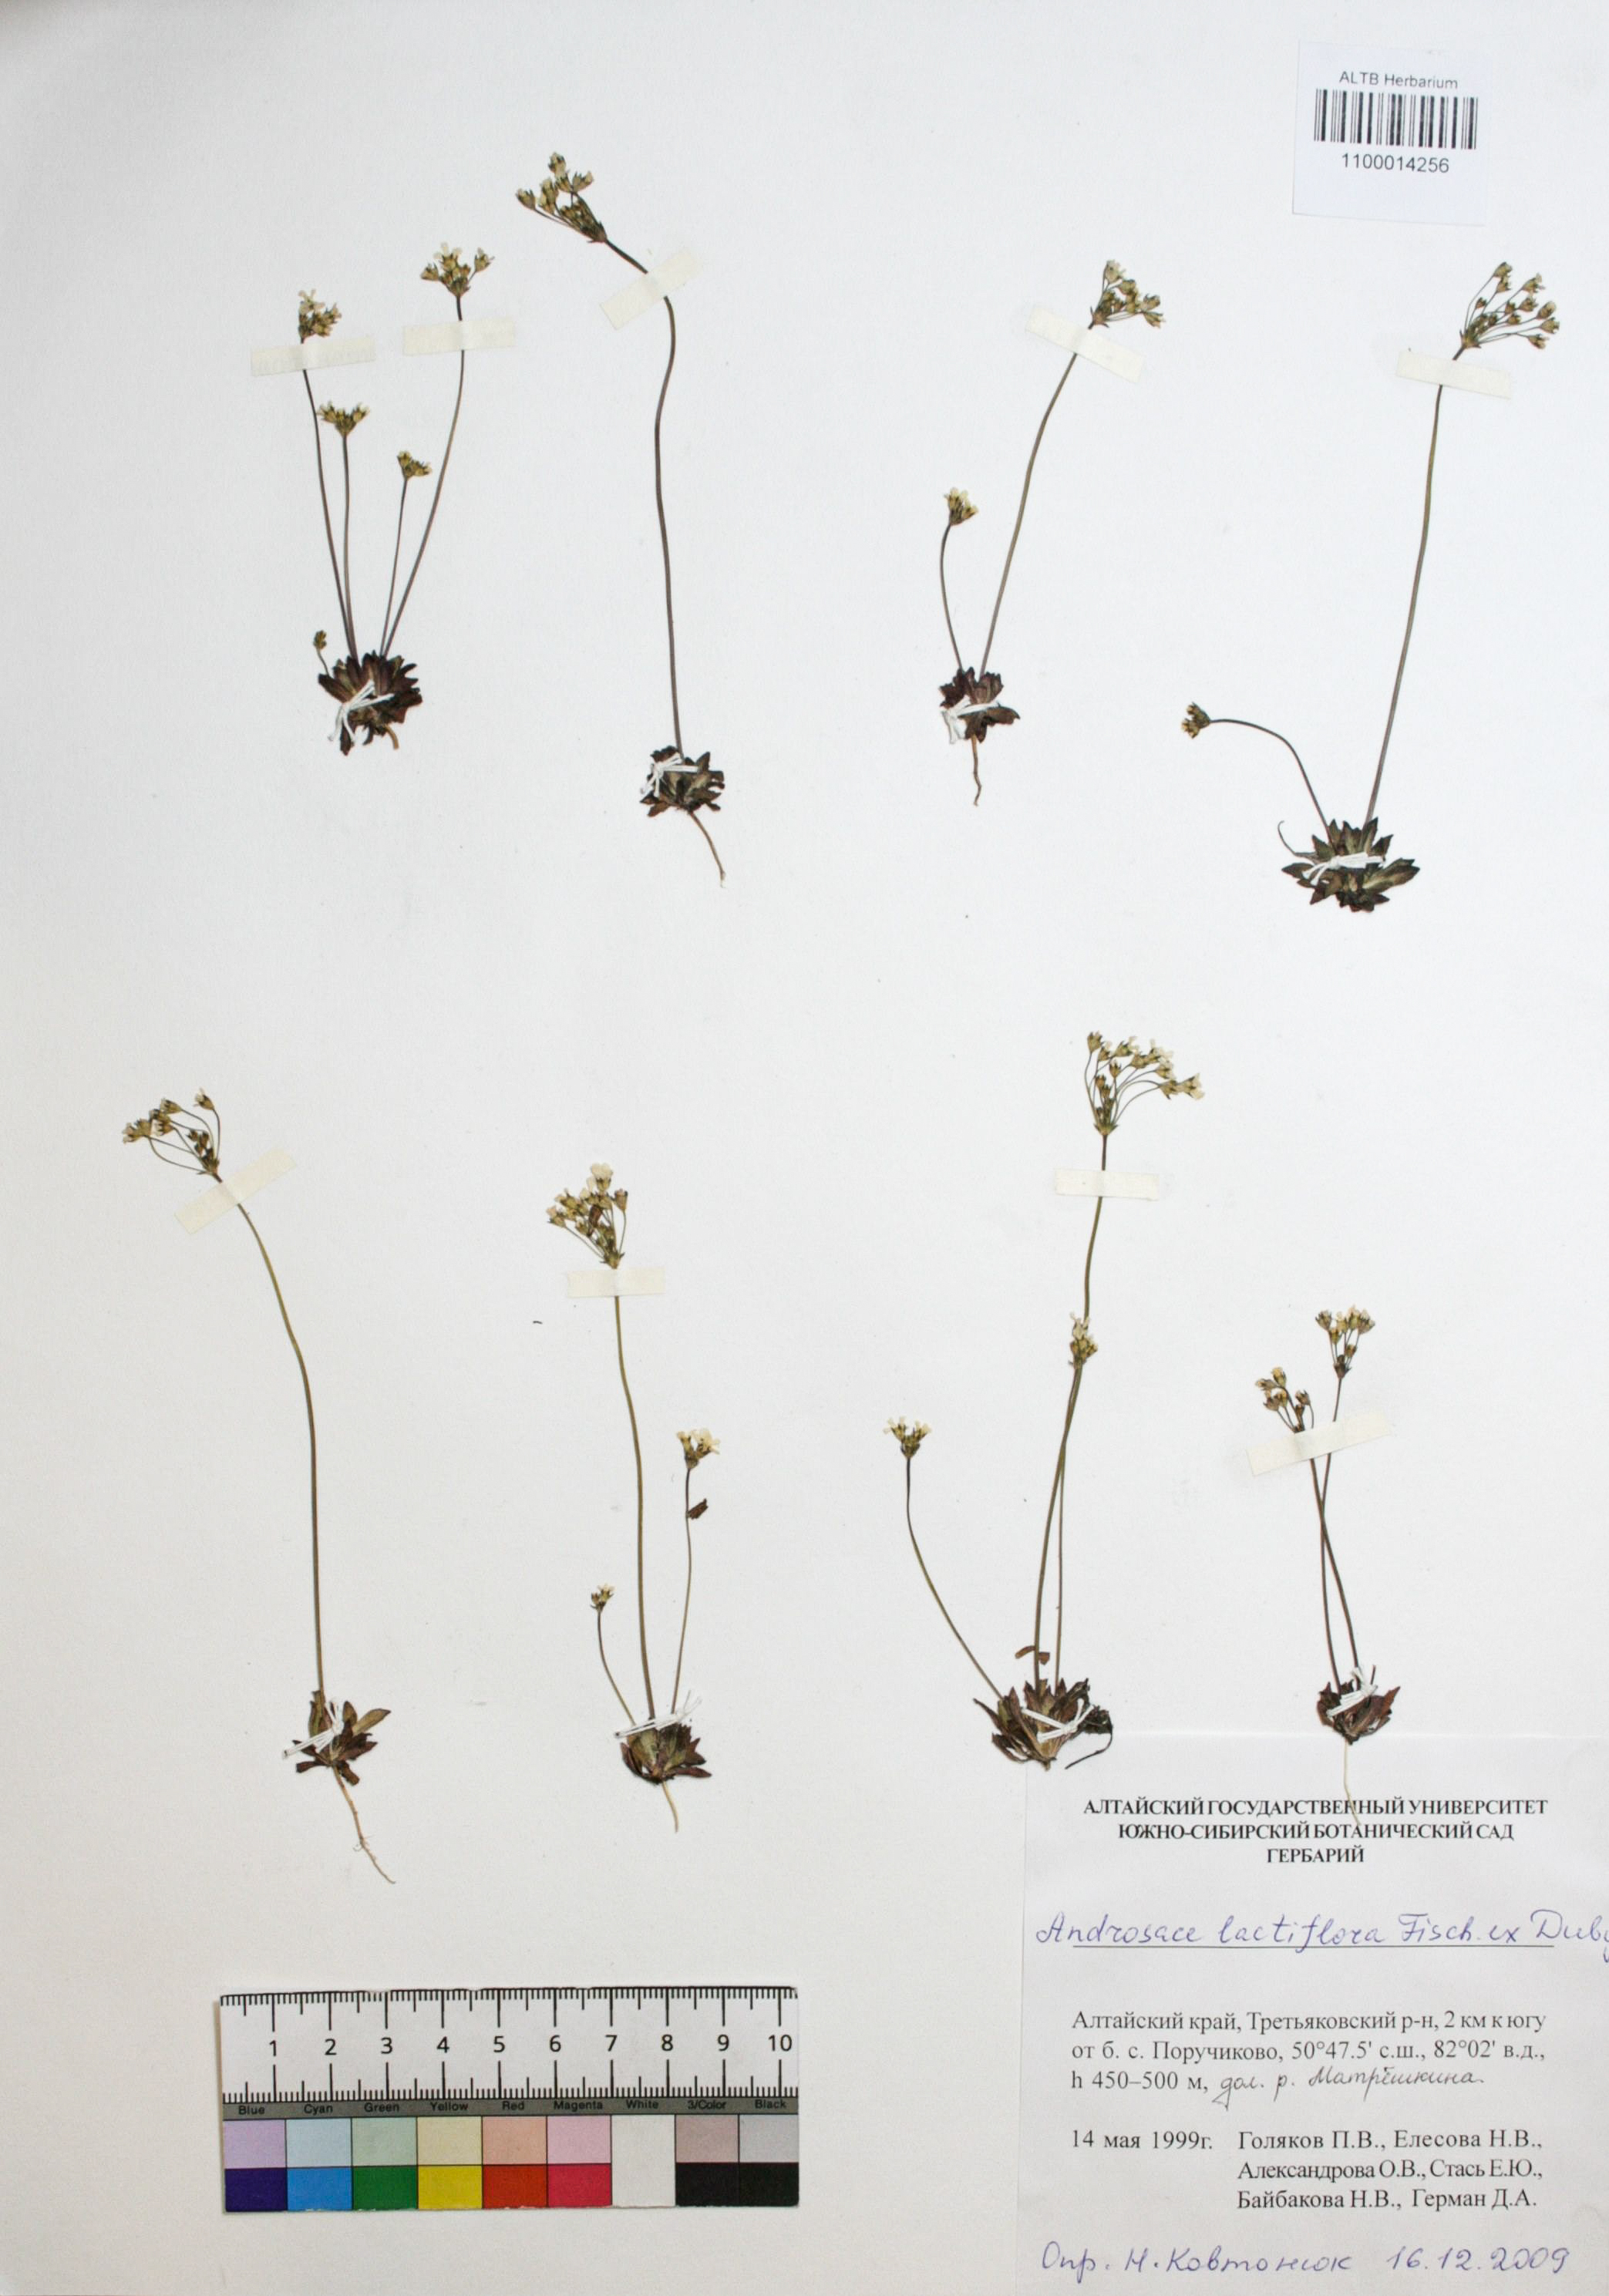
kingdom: Plantae
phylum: Tracheophyta
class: Magnoliopsida
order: Ericales
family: Primulaceae
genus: Androsace
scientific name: Androsace lactiflora
